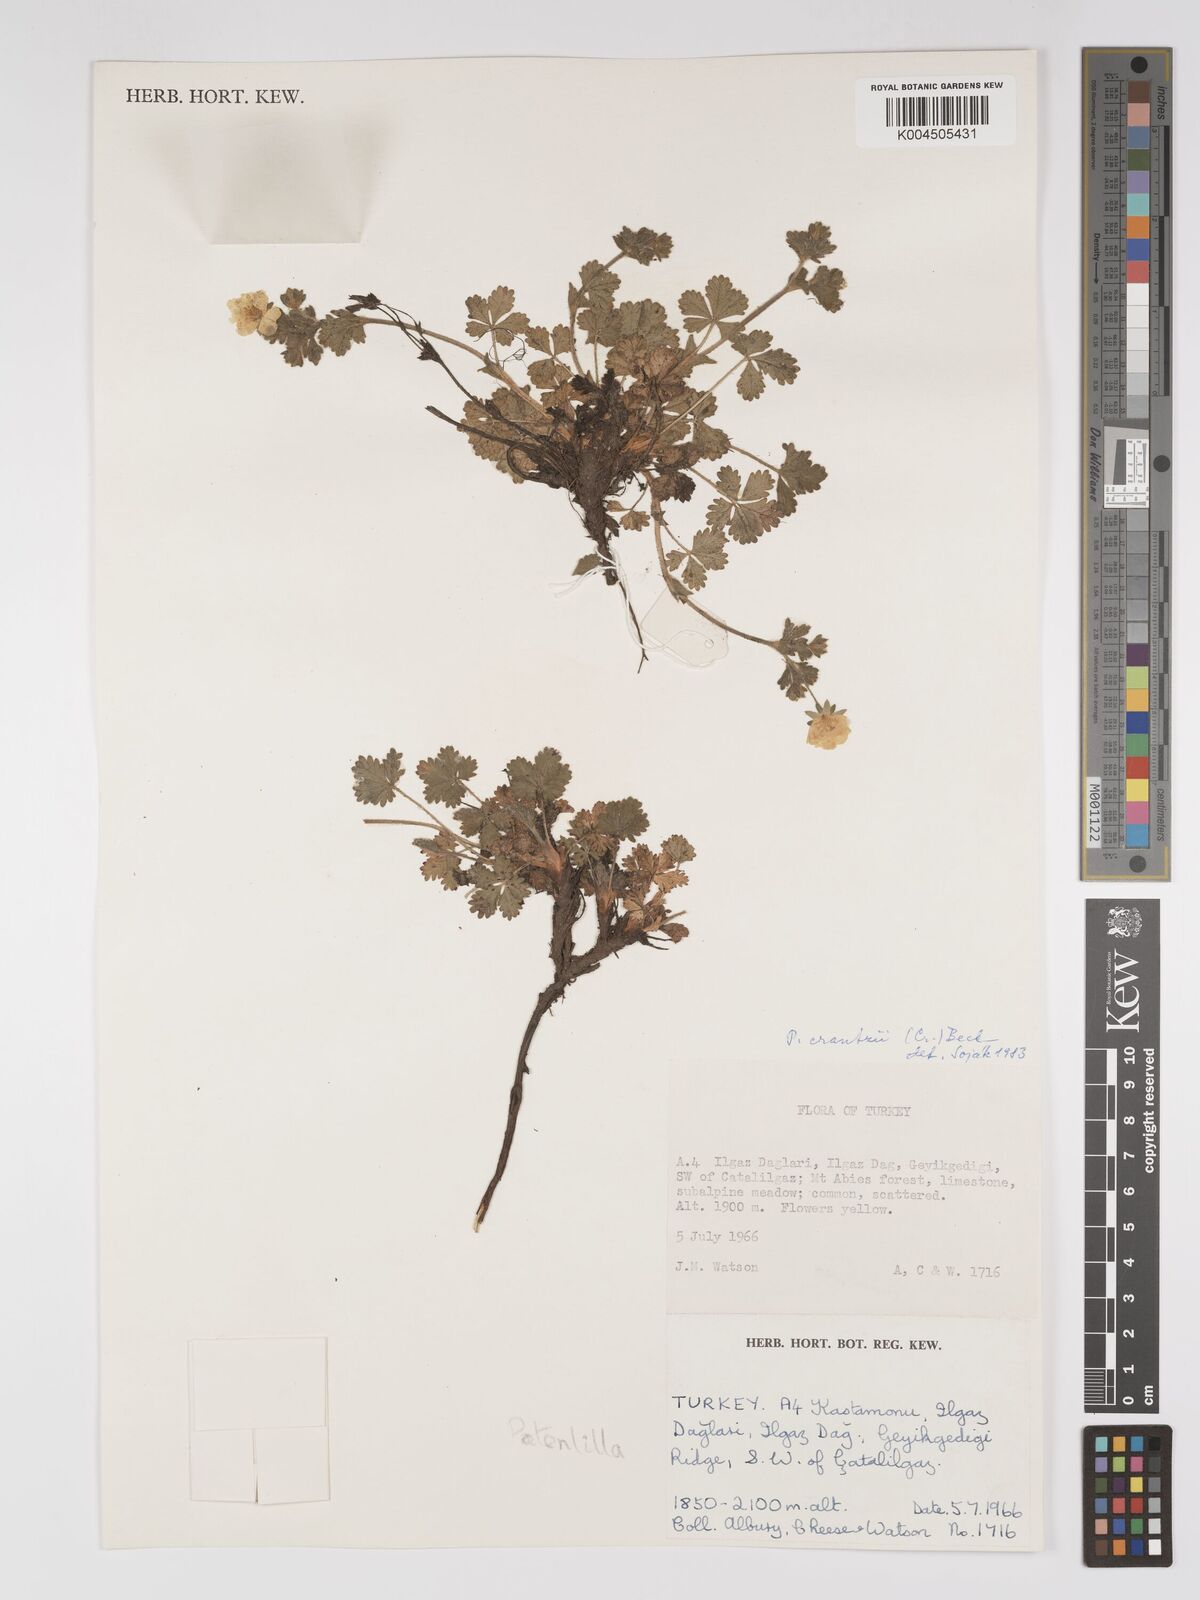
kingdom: Plantae
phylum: Tracheophyta
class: Magnoliopsida
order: Rosales
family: Rosaceae
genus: Potentilla
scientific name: Potentilla
